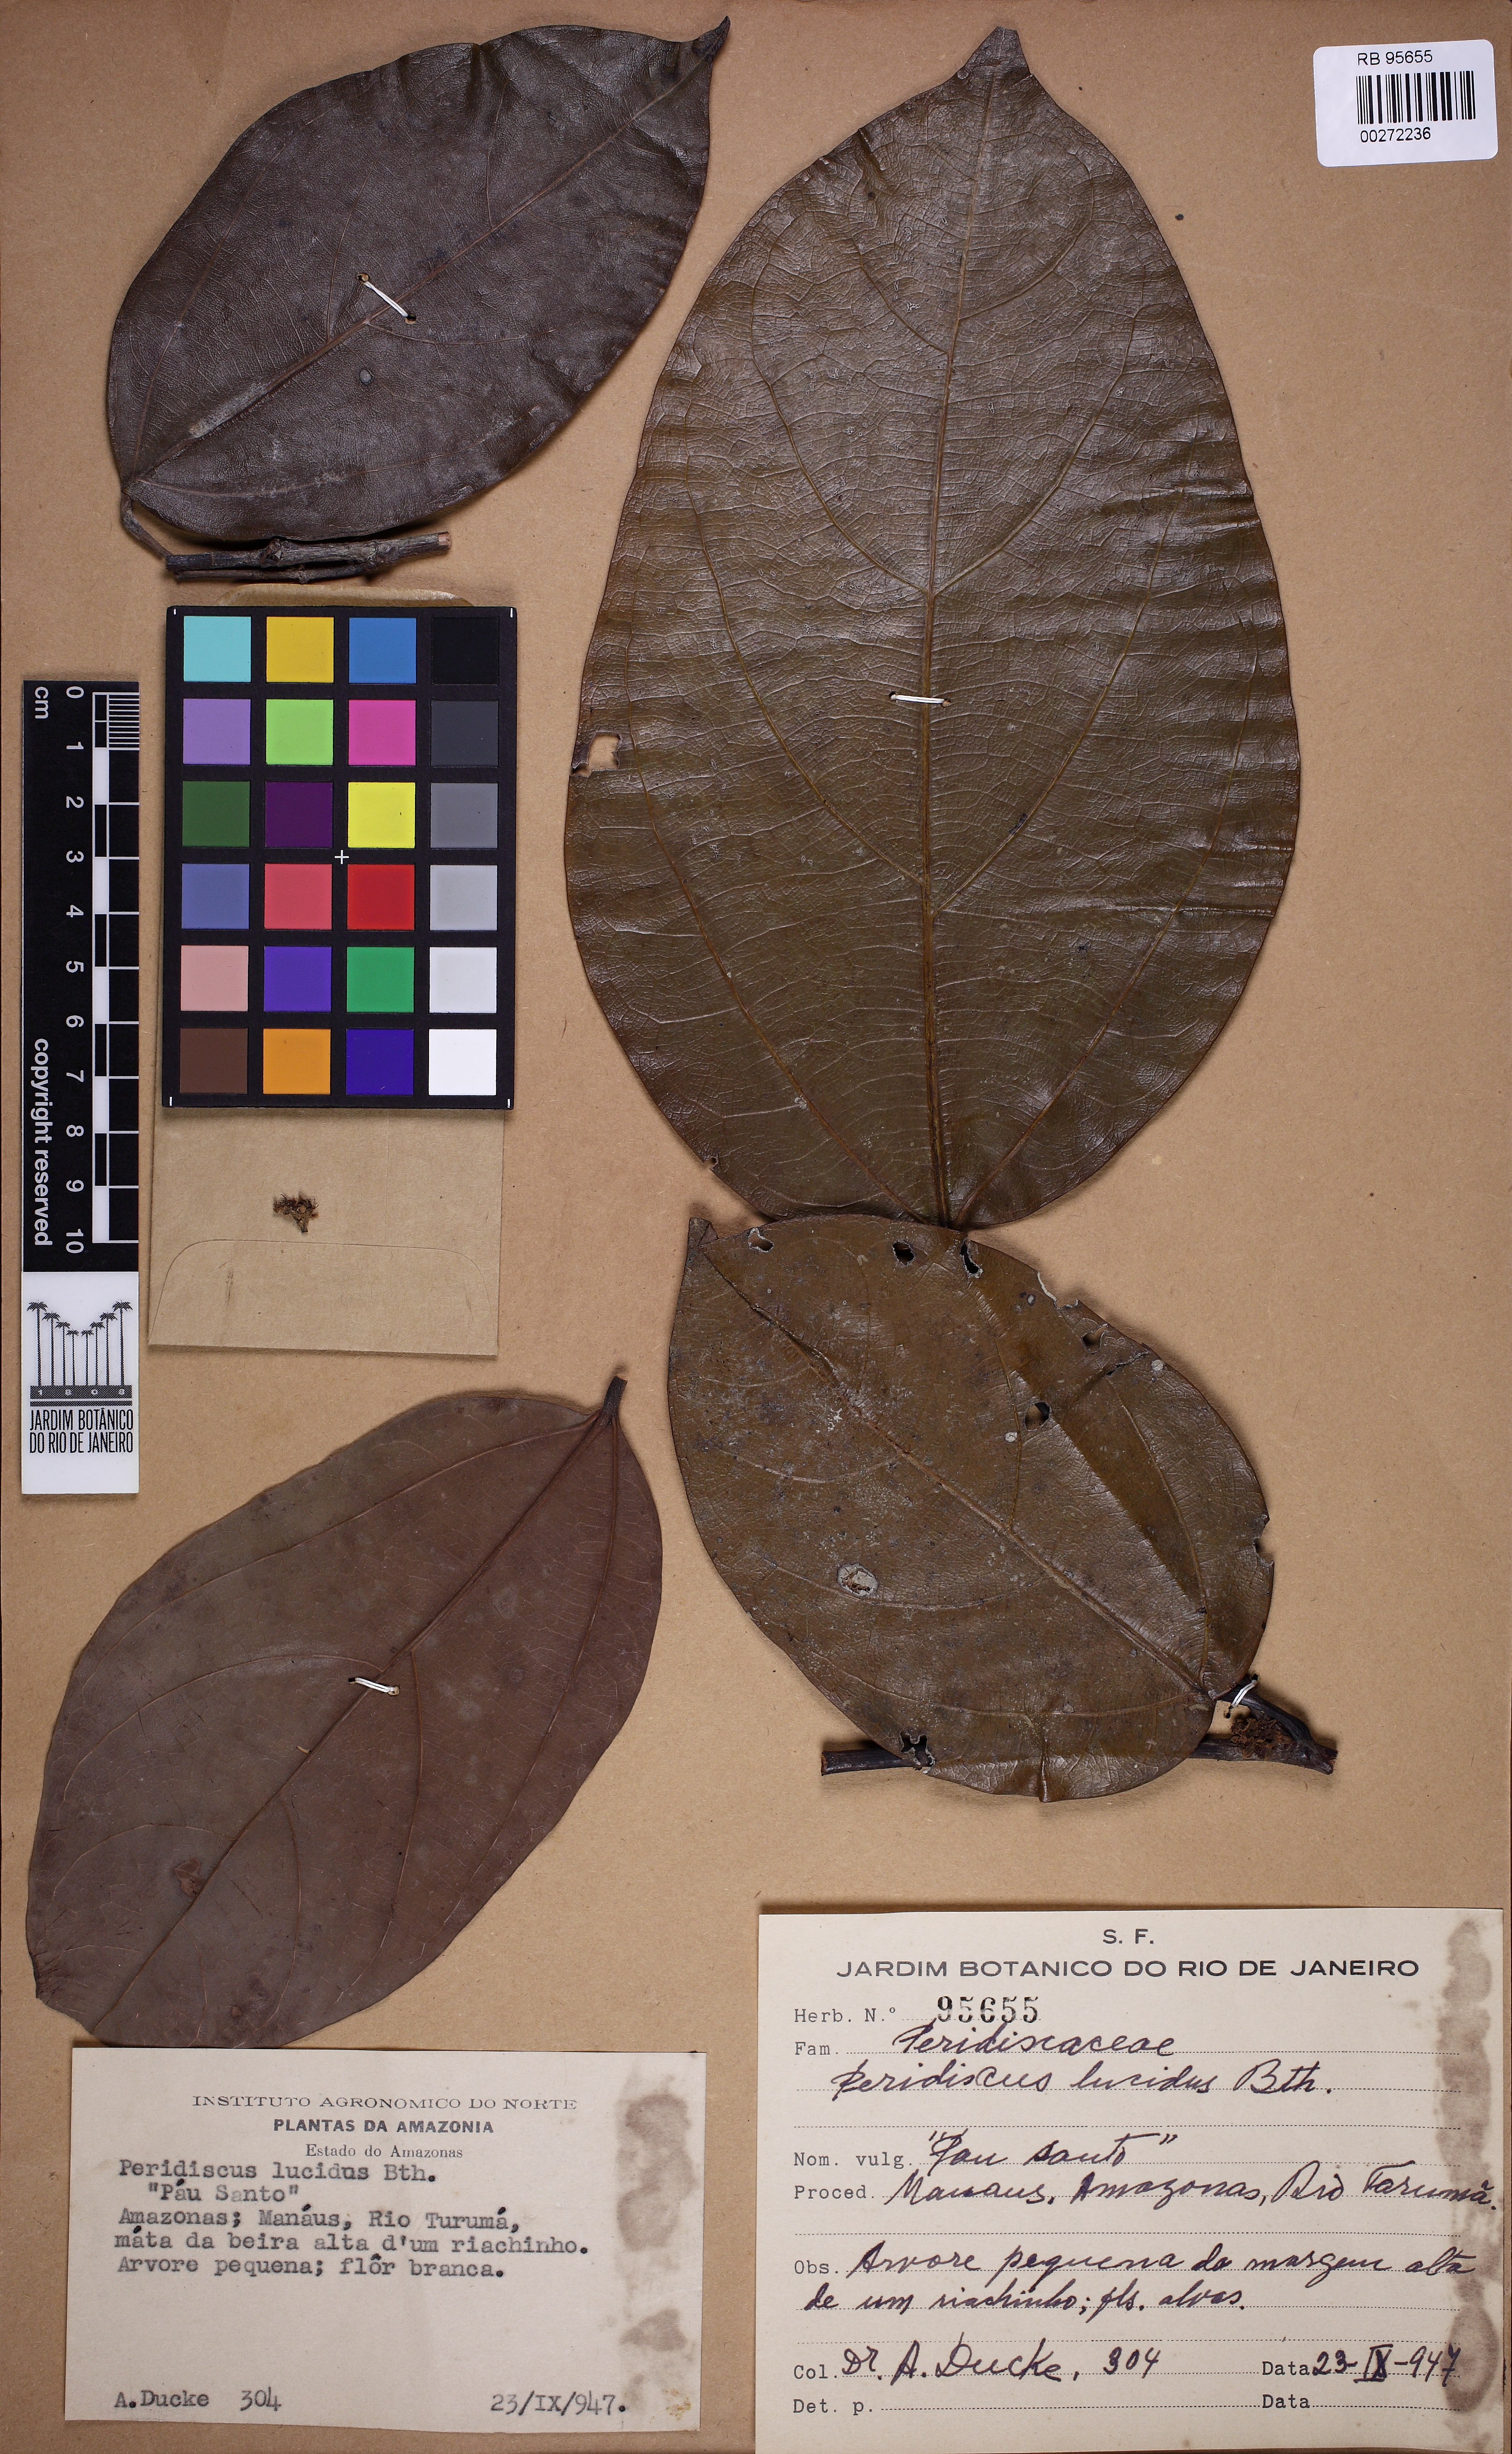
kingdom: Plantae
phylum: Tracheophyta
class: Magnoliopsida
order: Saxifragales
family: Peridiscaceae
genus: Peridiscus
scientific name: Peridiscus lucidus
